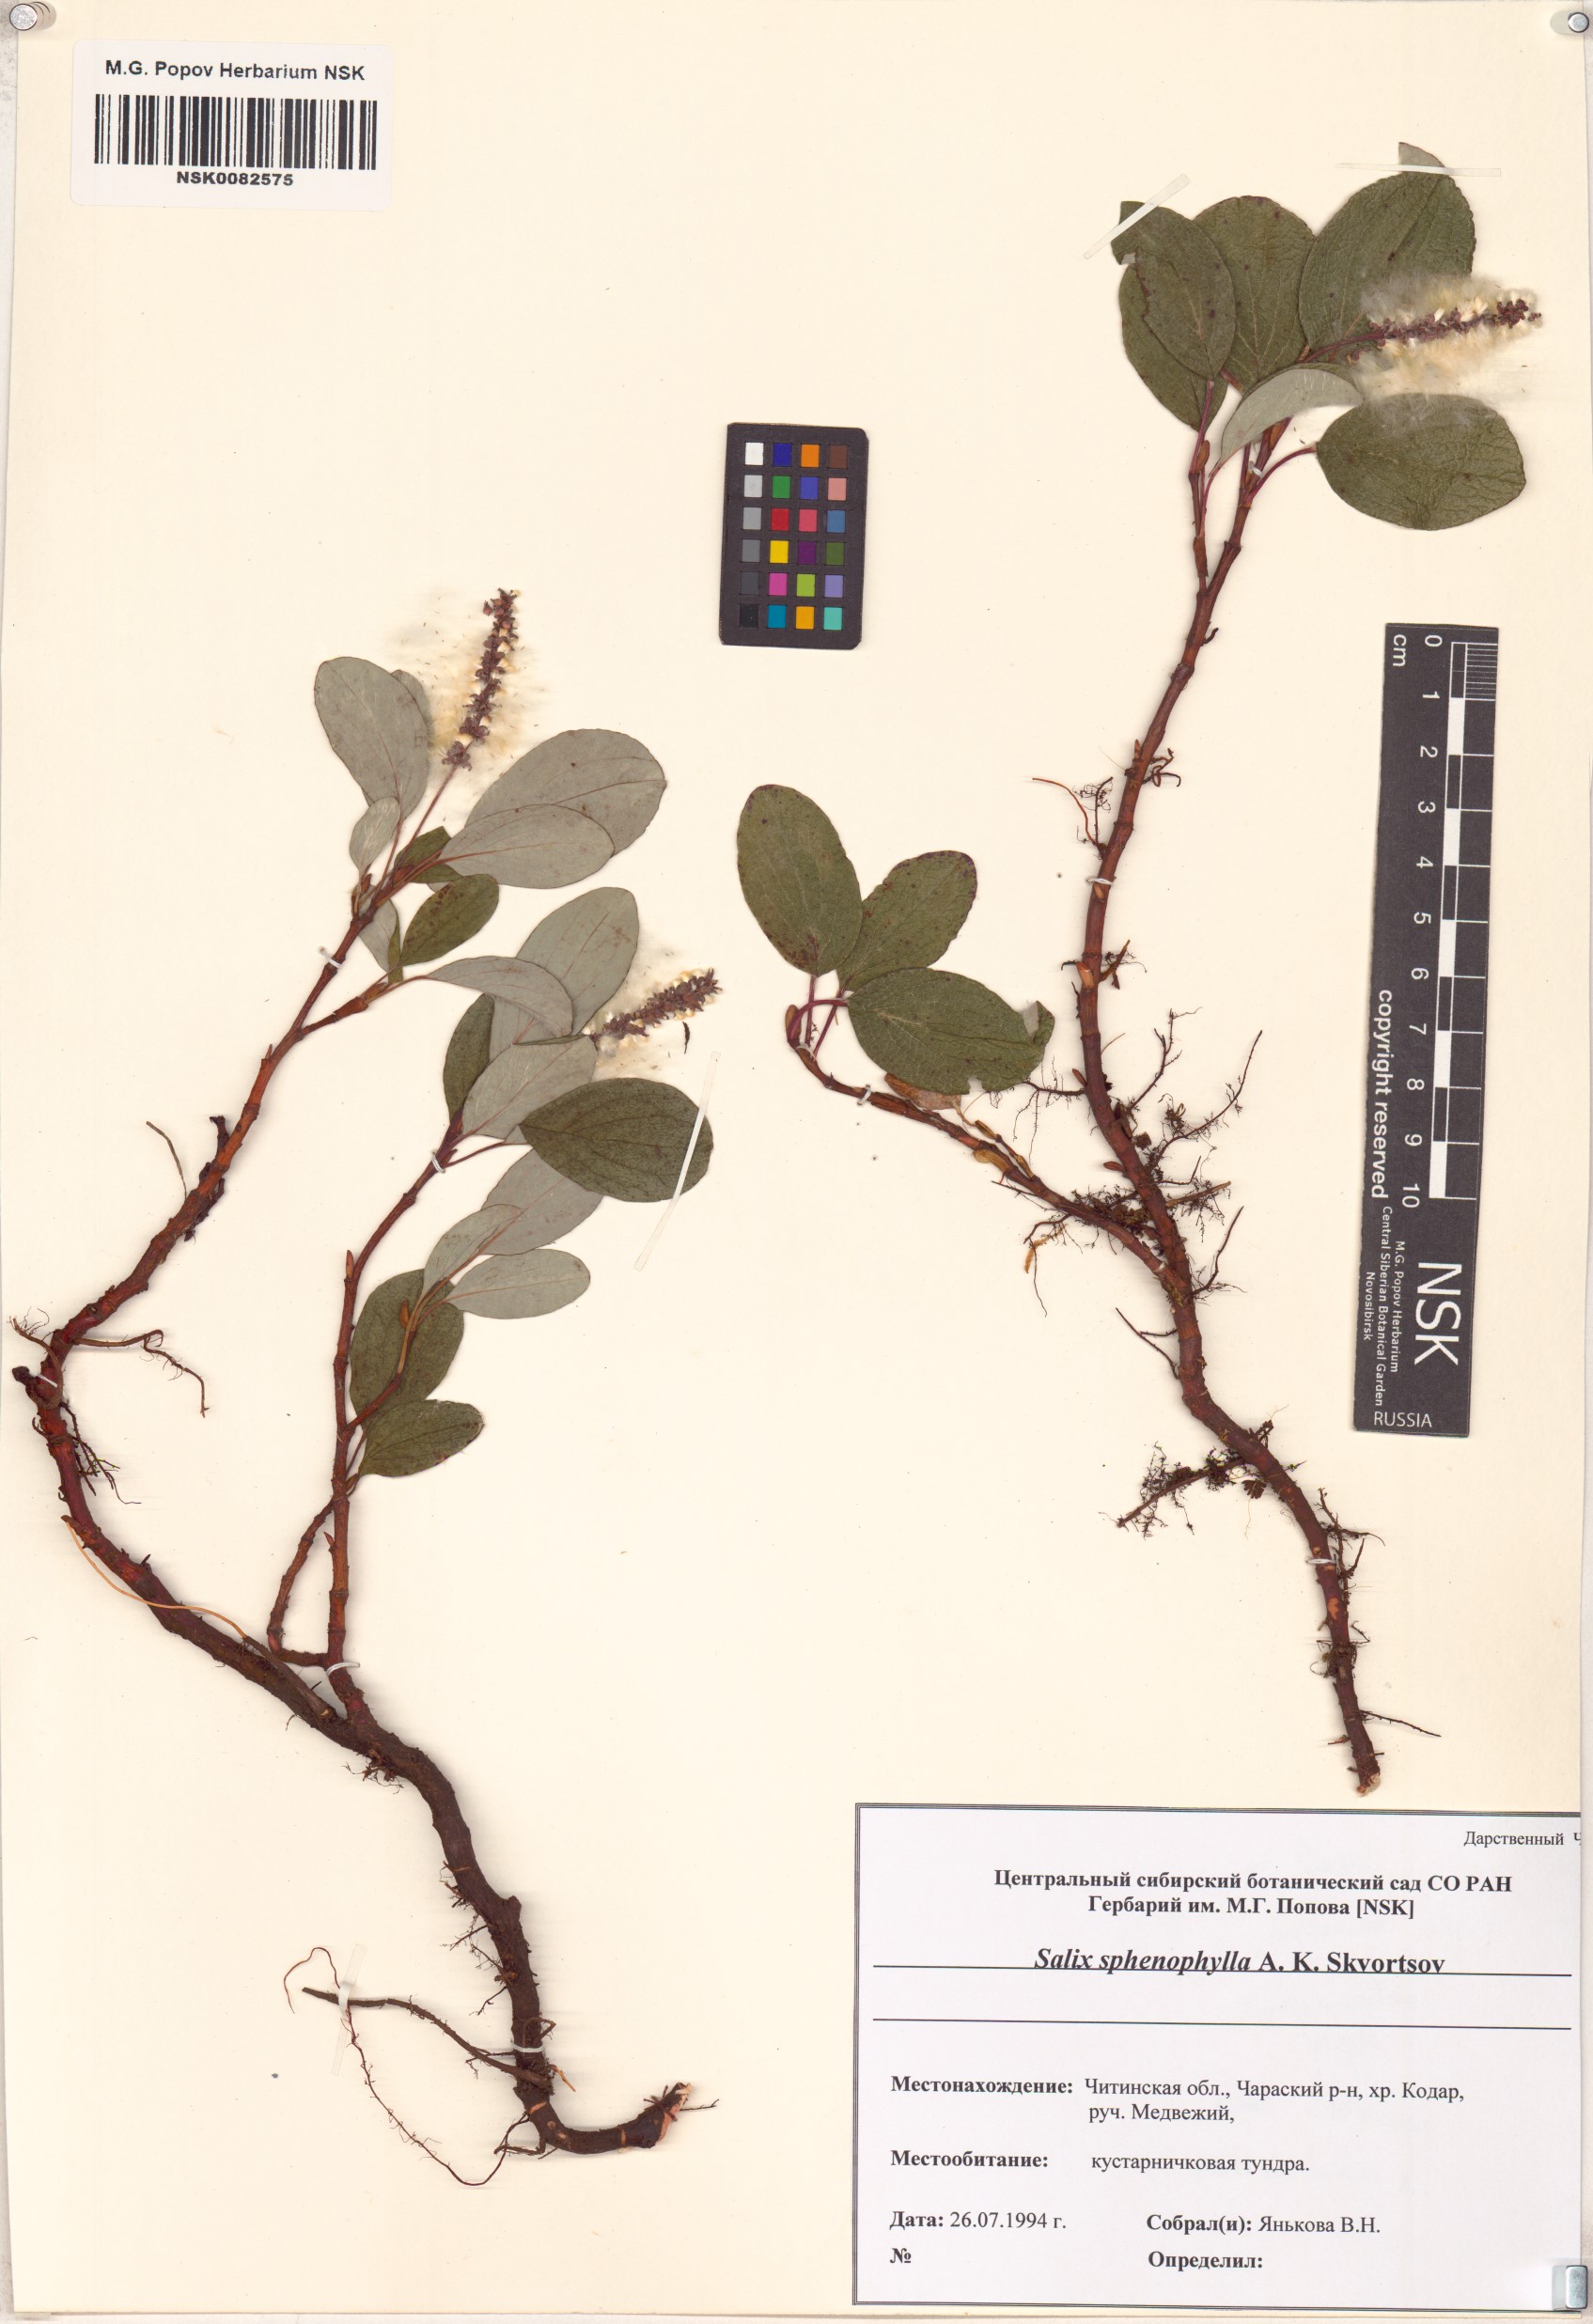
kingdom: Plantae
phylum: Tracheophyta
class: Magnoliopsida
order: Malpighiales
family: Salicaceae
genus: Salix
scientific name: Salix sphenophylla
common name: Wedge-leaved willow
